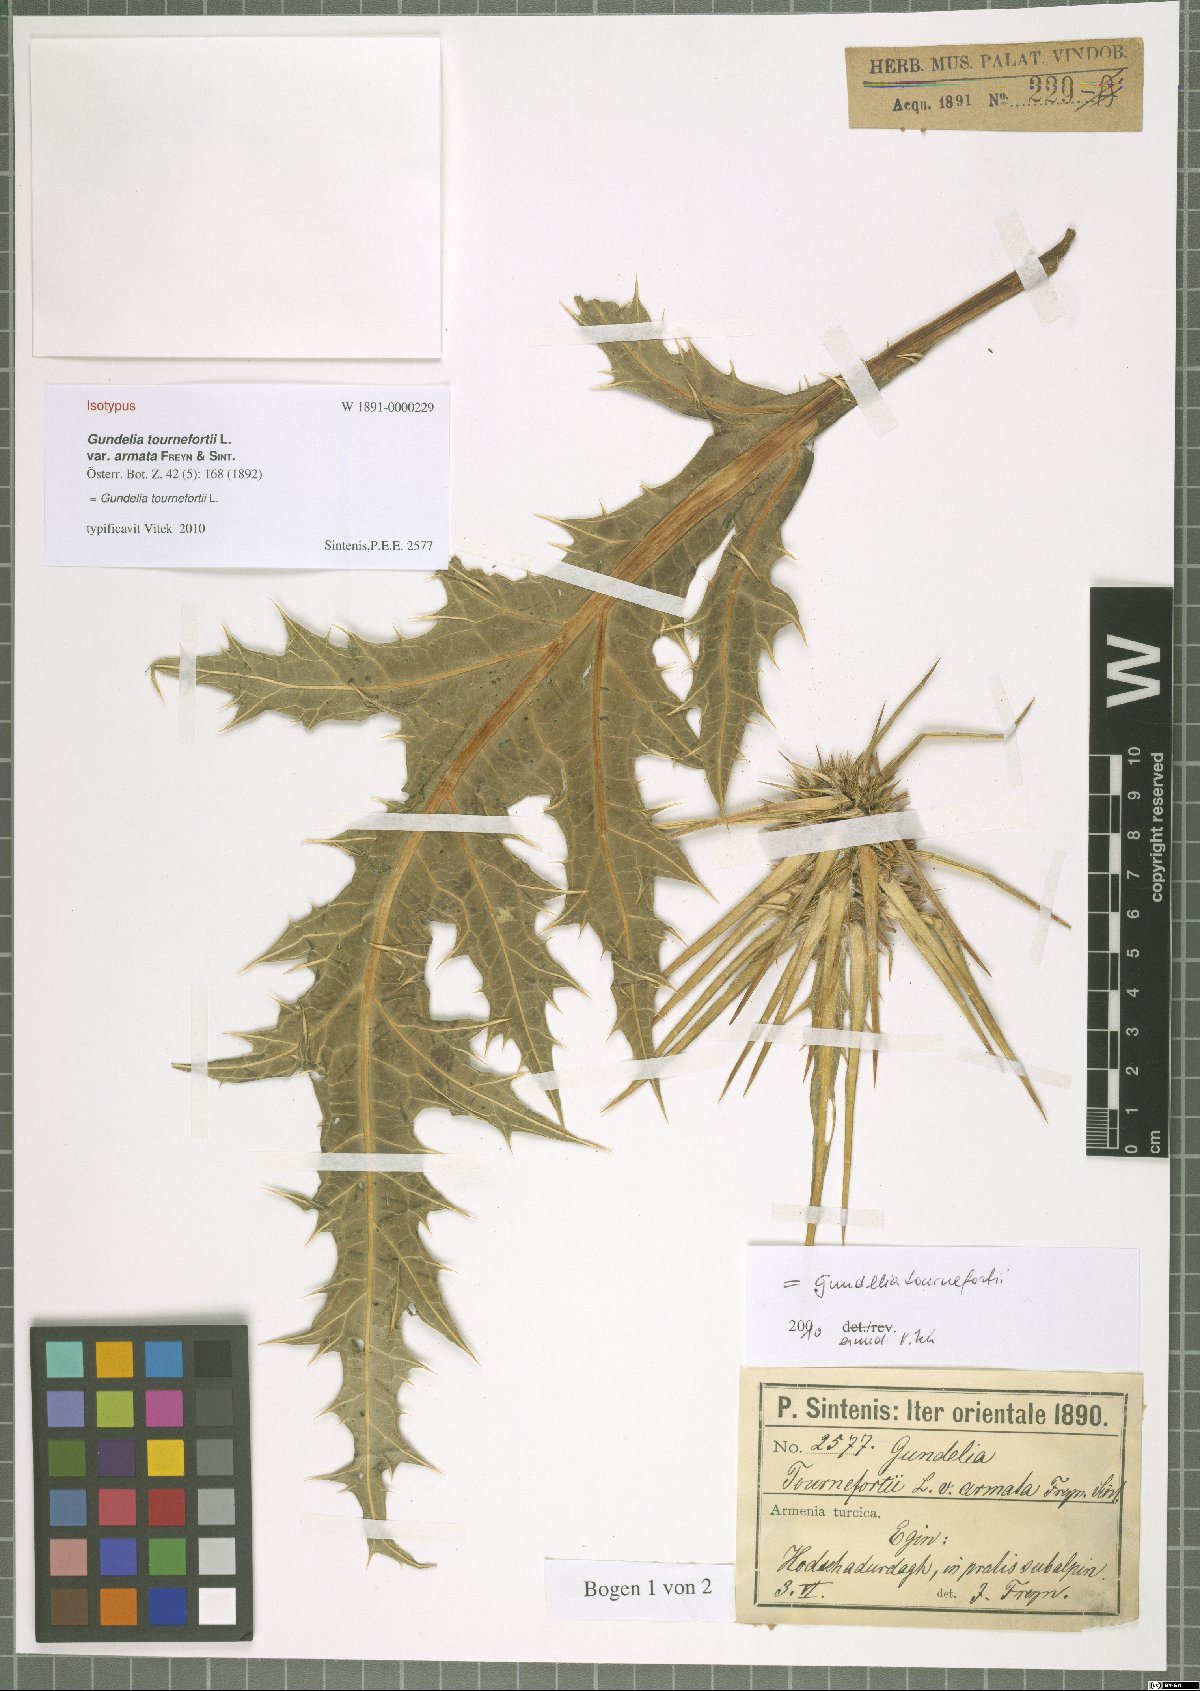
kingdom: Plantae
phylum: Tracheophyta
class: Magnoliopsida
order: Asterales
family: Asteraceae
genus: Gundelia
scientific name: Gundelia tournefortii
